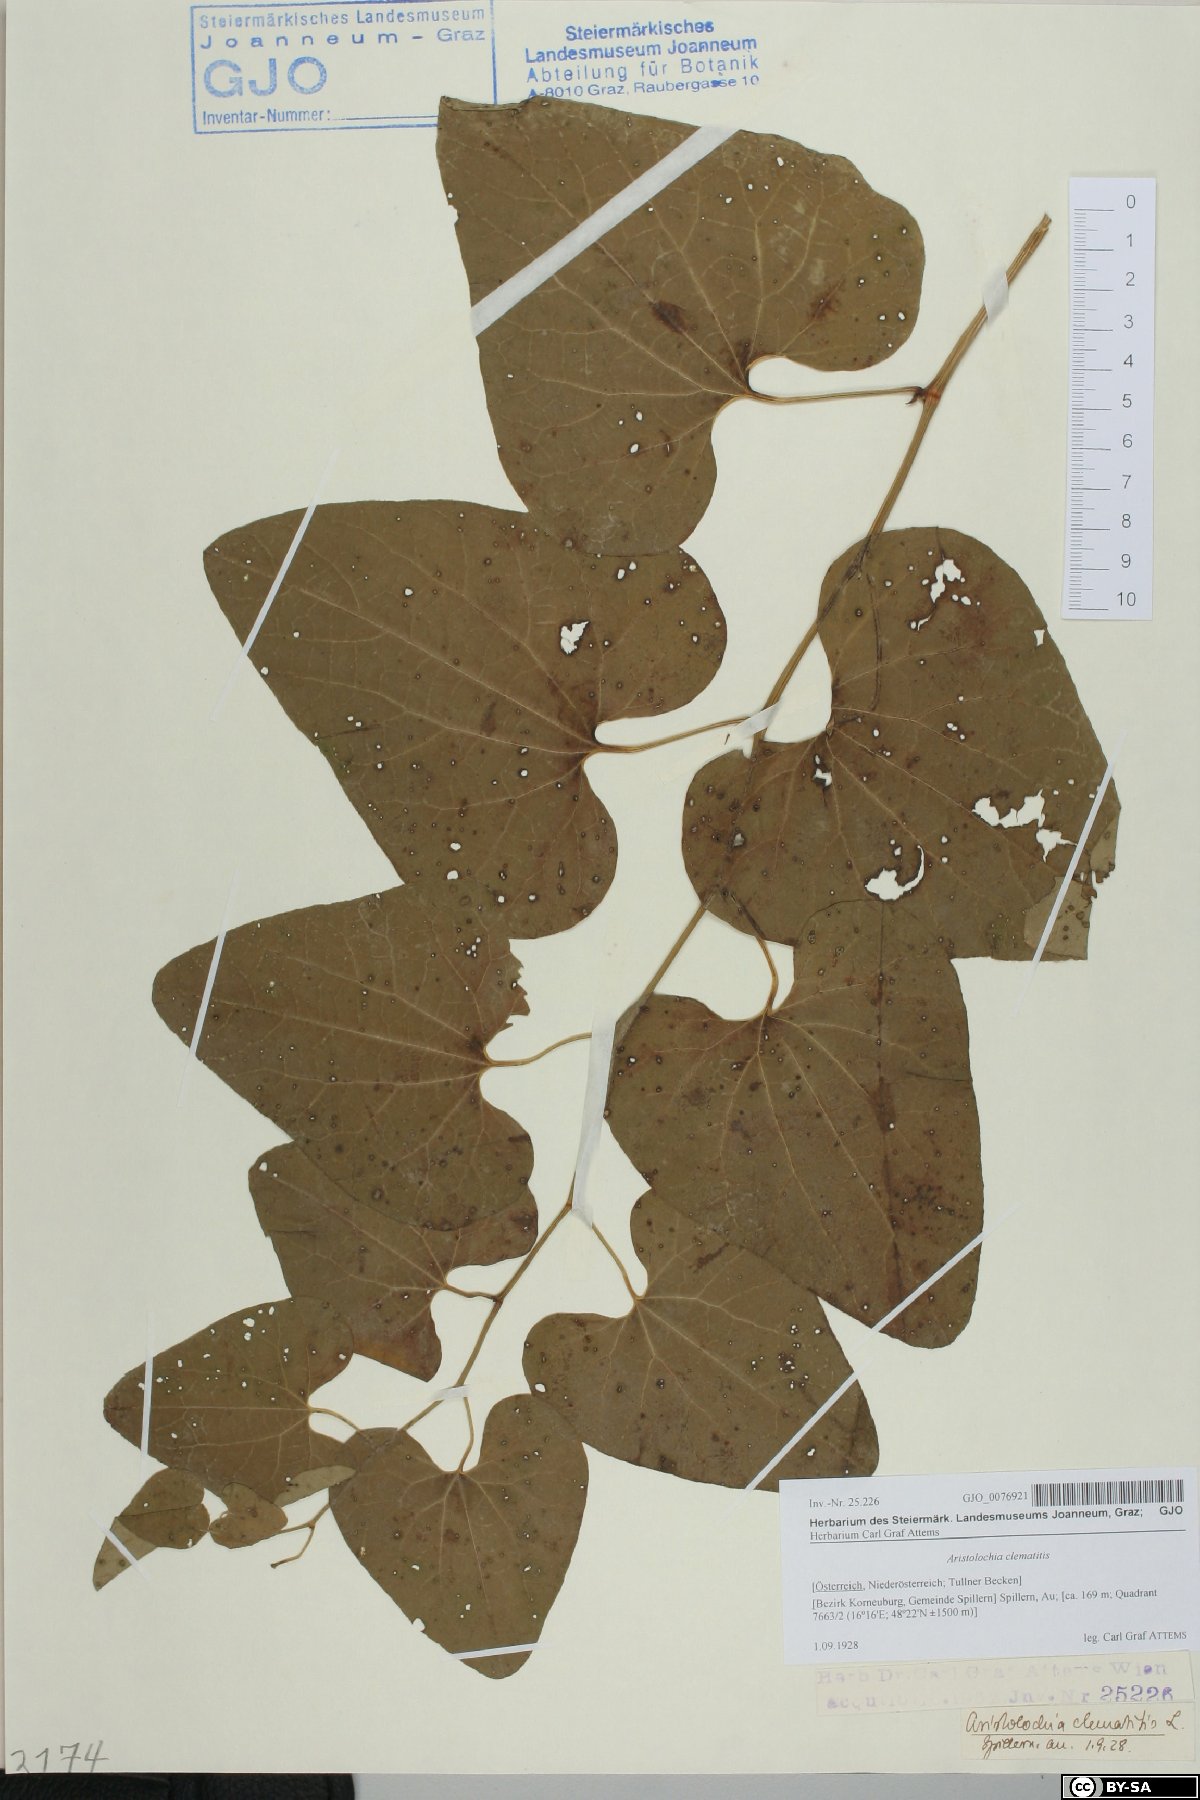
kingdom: Plantae
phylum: Tracheophyta
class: Magnoliopsida
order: Piperales
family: Aristolochiaceae
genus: Aristolochia
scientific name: Aristolochia clematitis
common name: Birthwort
